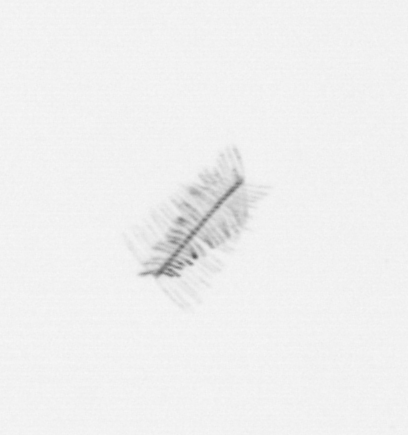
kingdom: Chromista
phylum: Ochrophyta
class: Bacillariophyceae
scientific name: Bacillariophyceae
